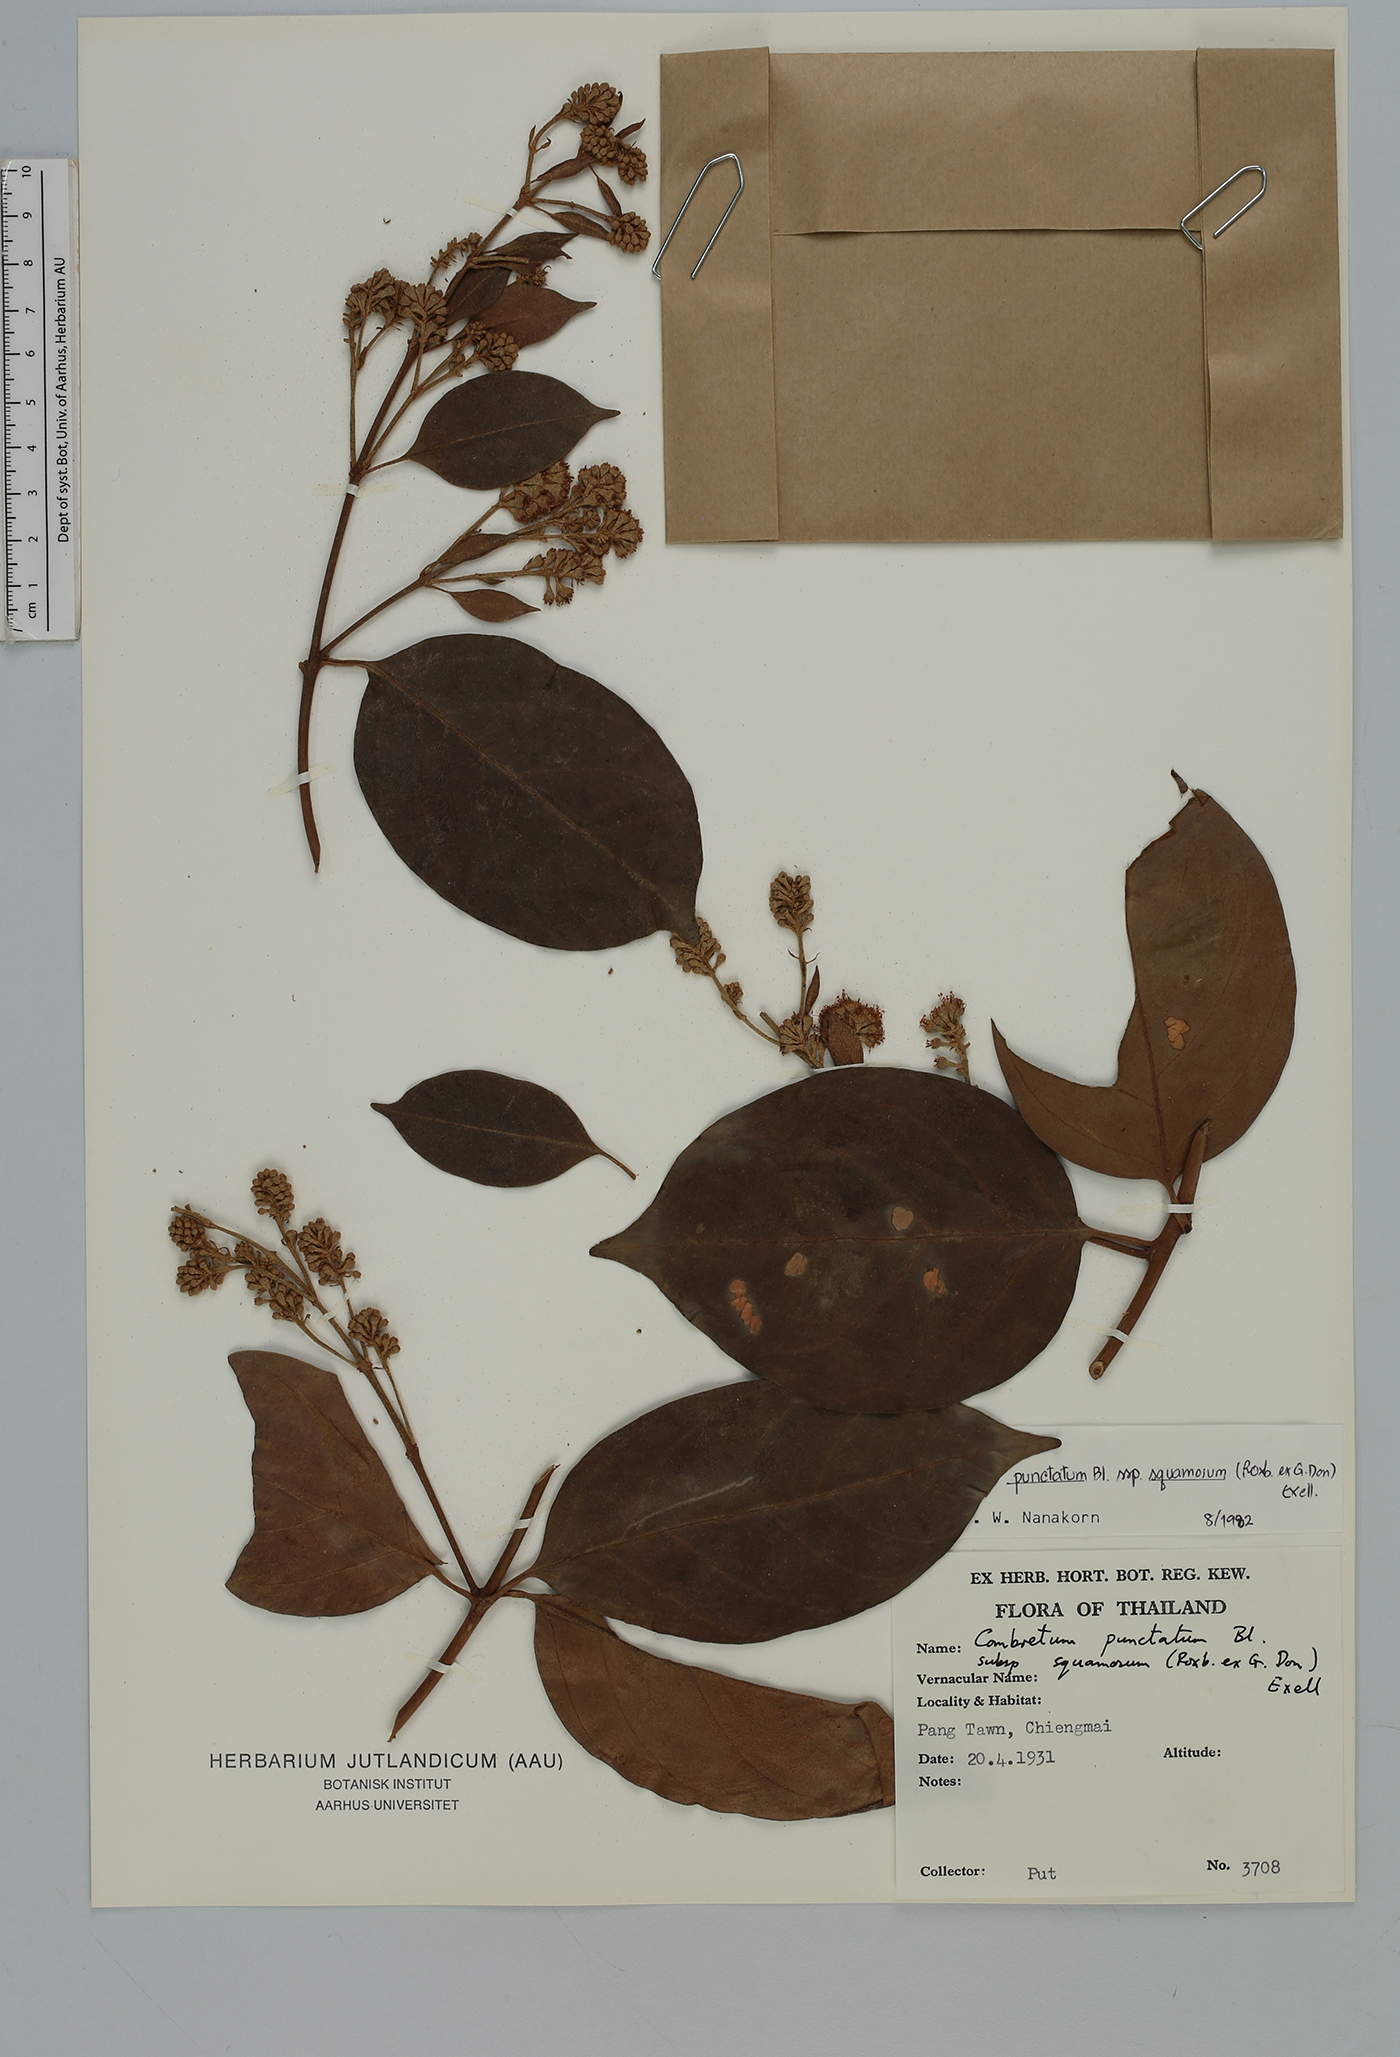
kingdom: Plantae
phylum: Tracheophyta
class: Magnoliopsida
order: Myrtales
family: Combretaceae
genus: Combretum
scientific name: Combretum punctatum
